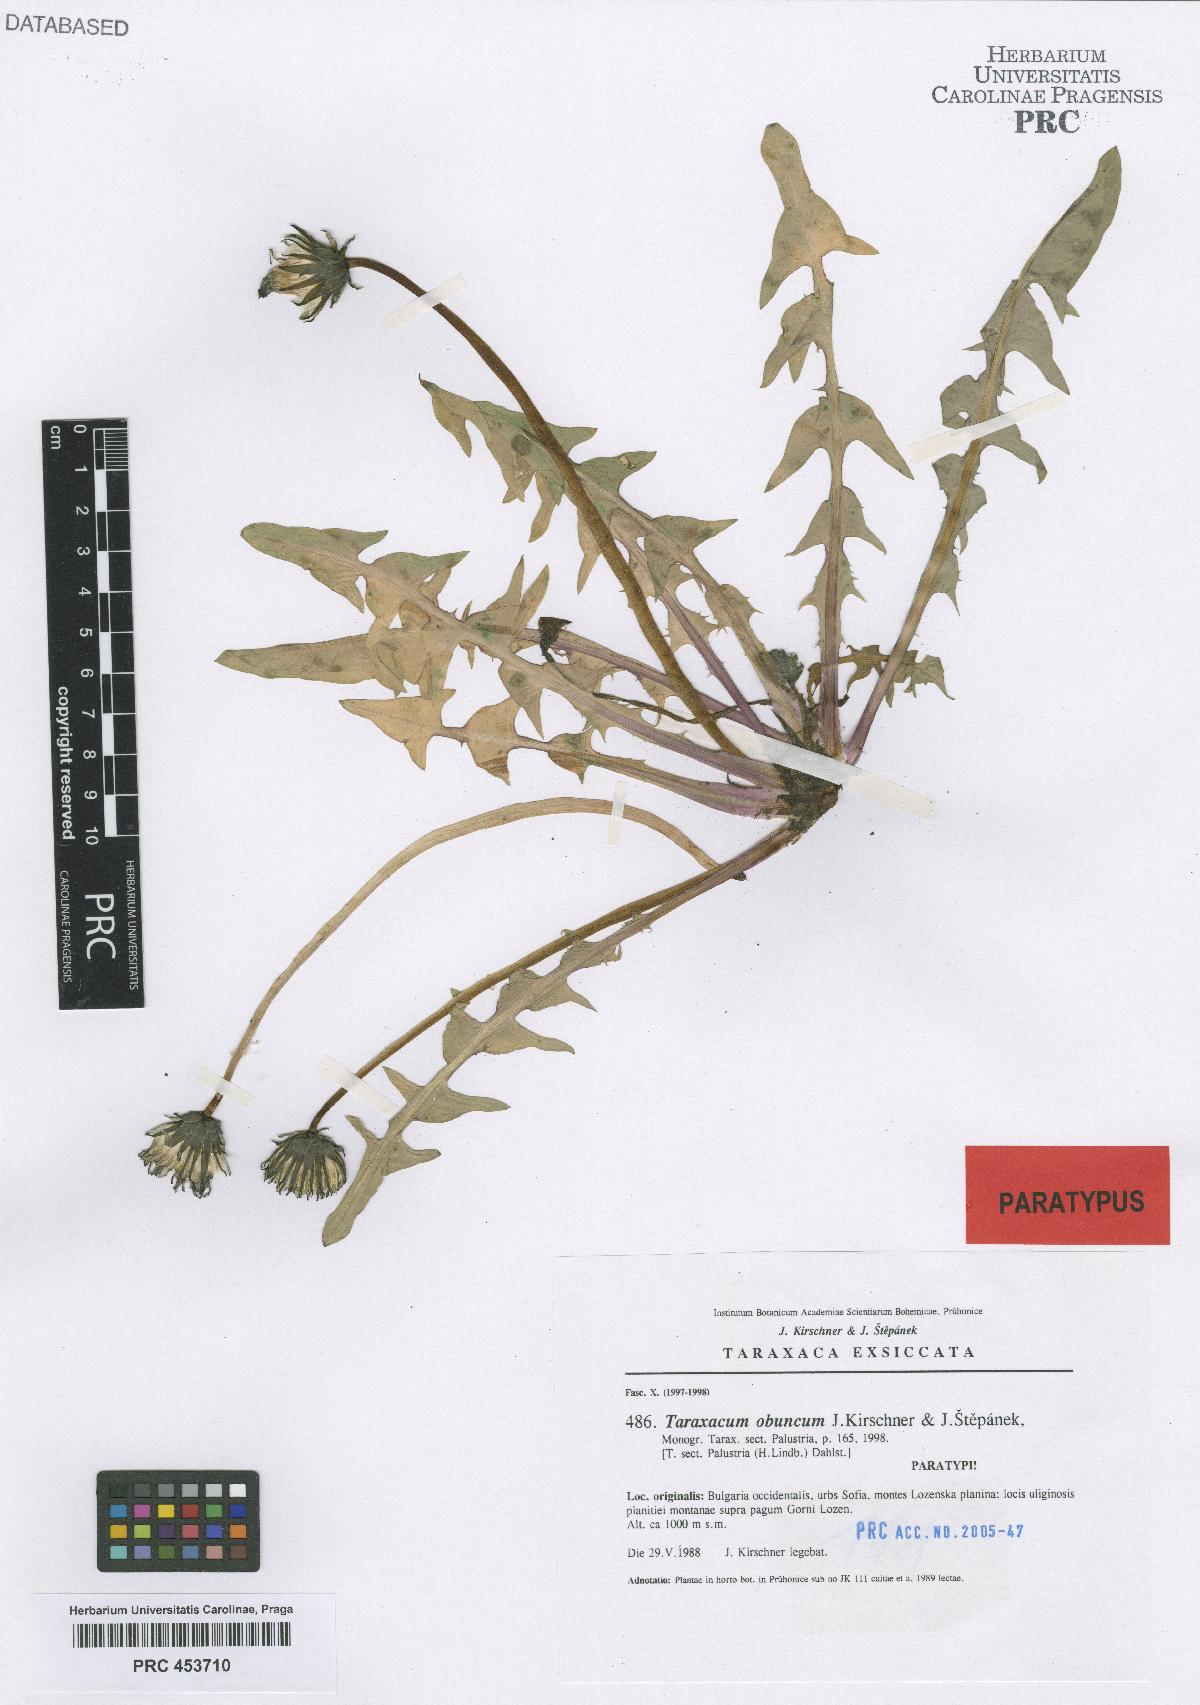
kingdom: Plantae
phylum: Tracheophyta
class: Magnoliopsida
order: Asterales
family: Asteraceae
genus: Taraxacum
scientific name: Taraxacum obuncum
